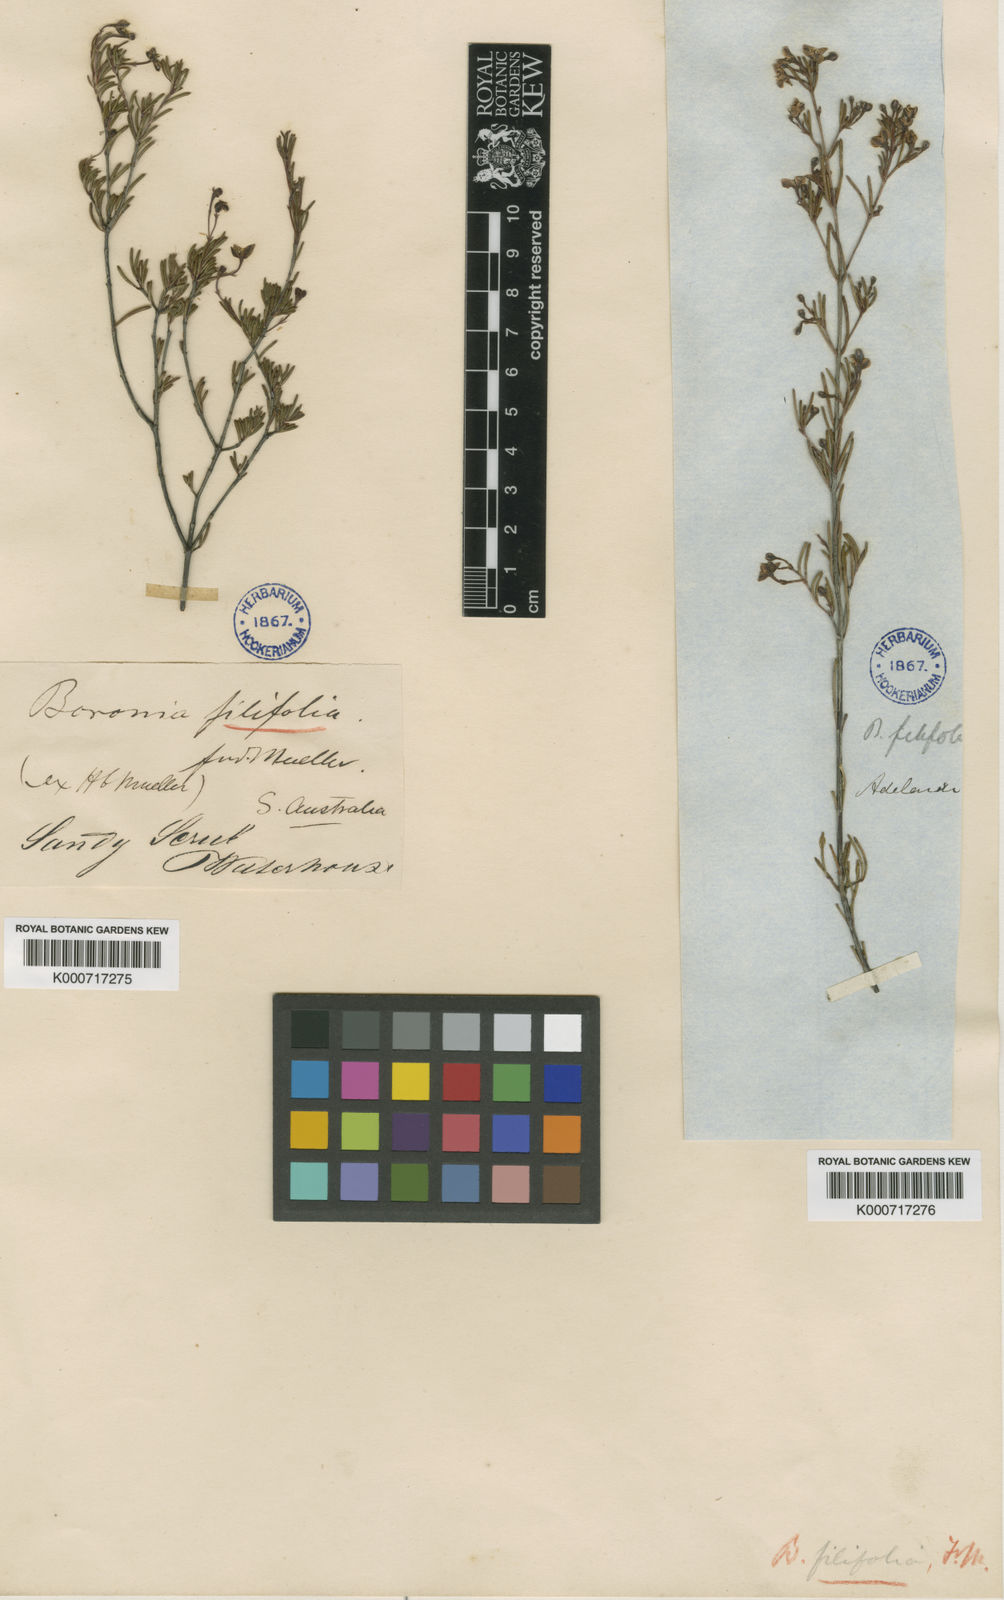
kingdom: Plantae
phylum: Tracheophyta
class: Magnoliopsida
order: Sapindales
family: Rutaceae
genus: Boronia
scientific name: Boronia filifolia
